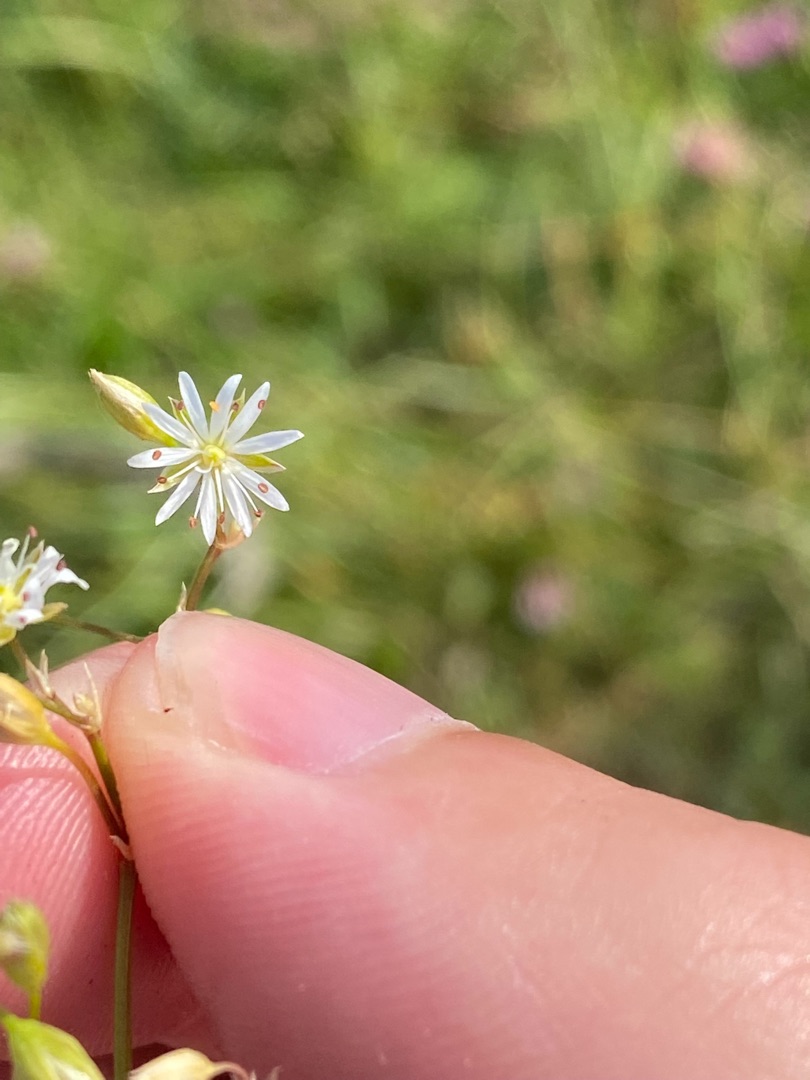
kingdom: Plantae
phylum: Tracheophyta
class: Magnoliopsida
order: Caryophyllales
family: Caryophyllaceae
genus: Stellaria
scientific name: Stellaria graminea
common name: Græsbladet fladstjerne
